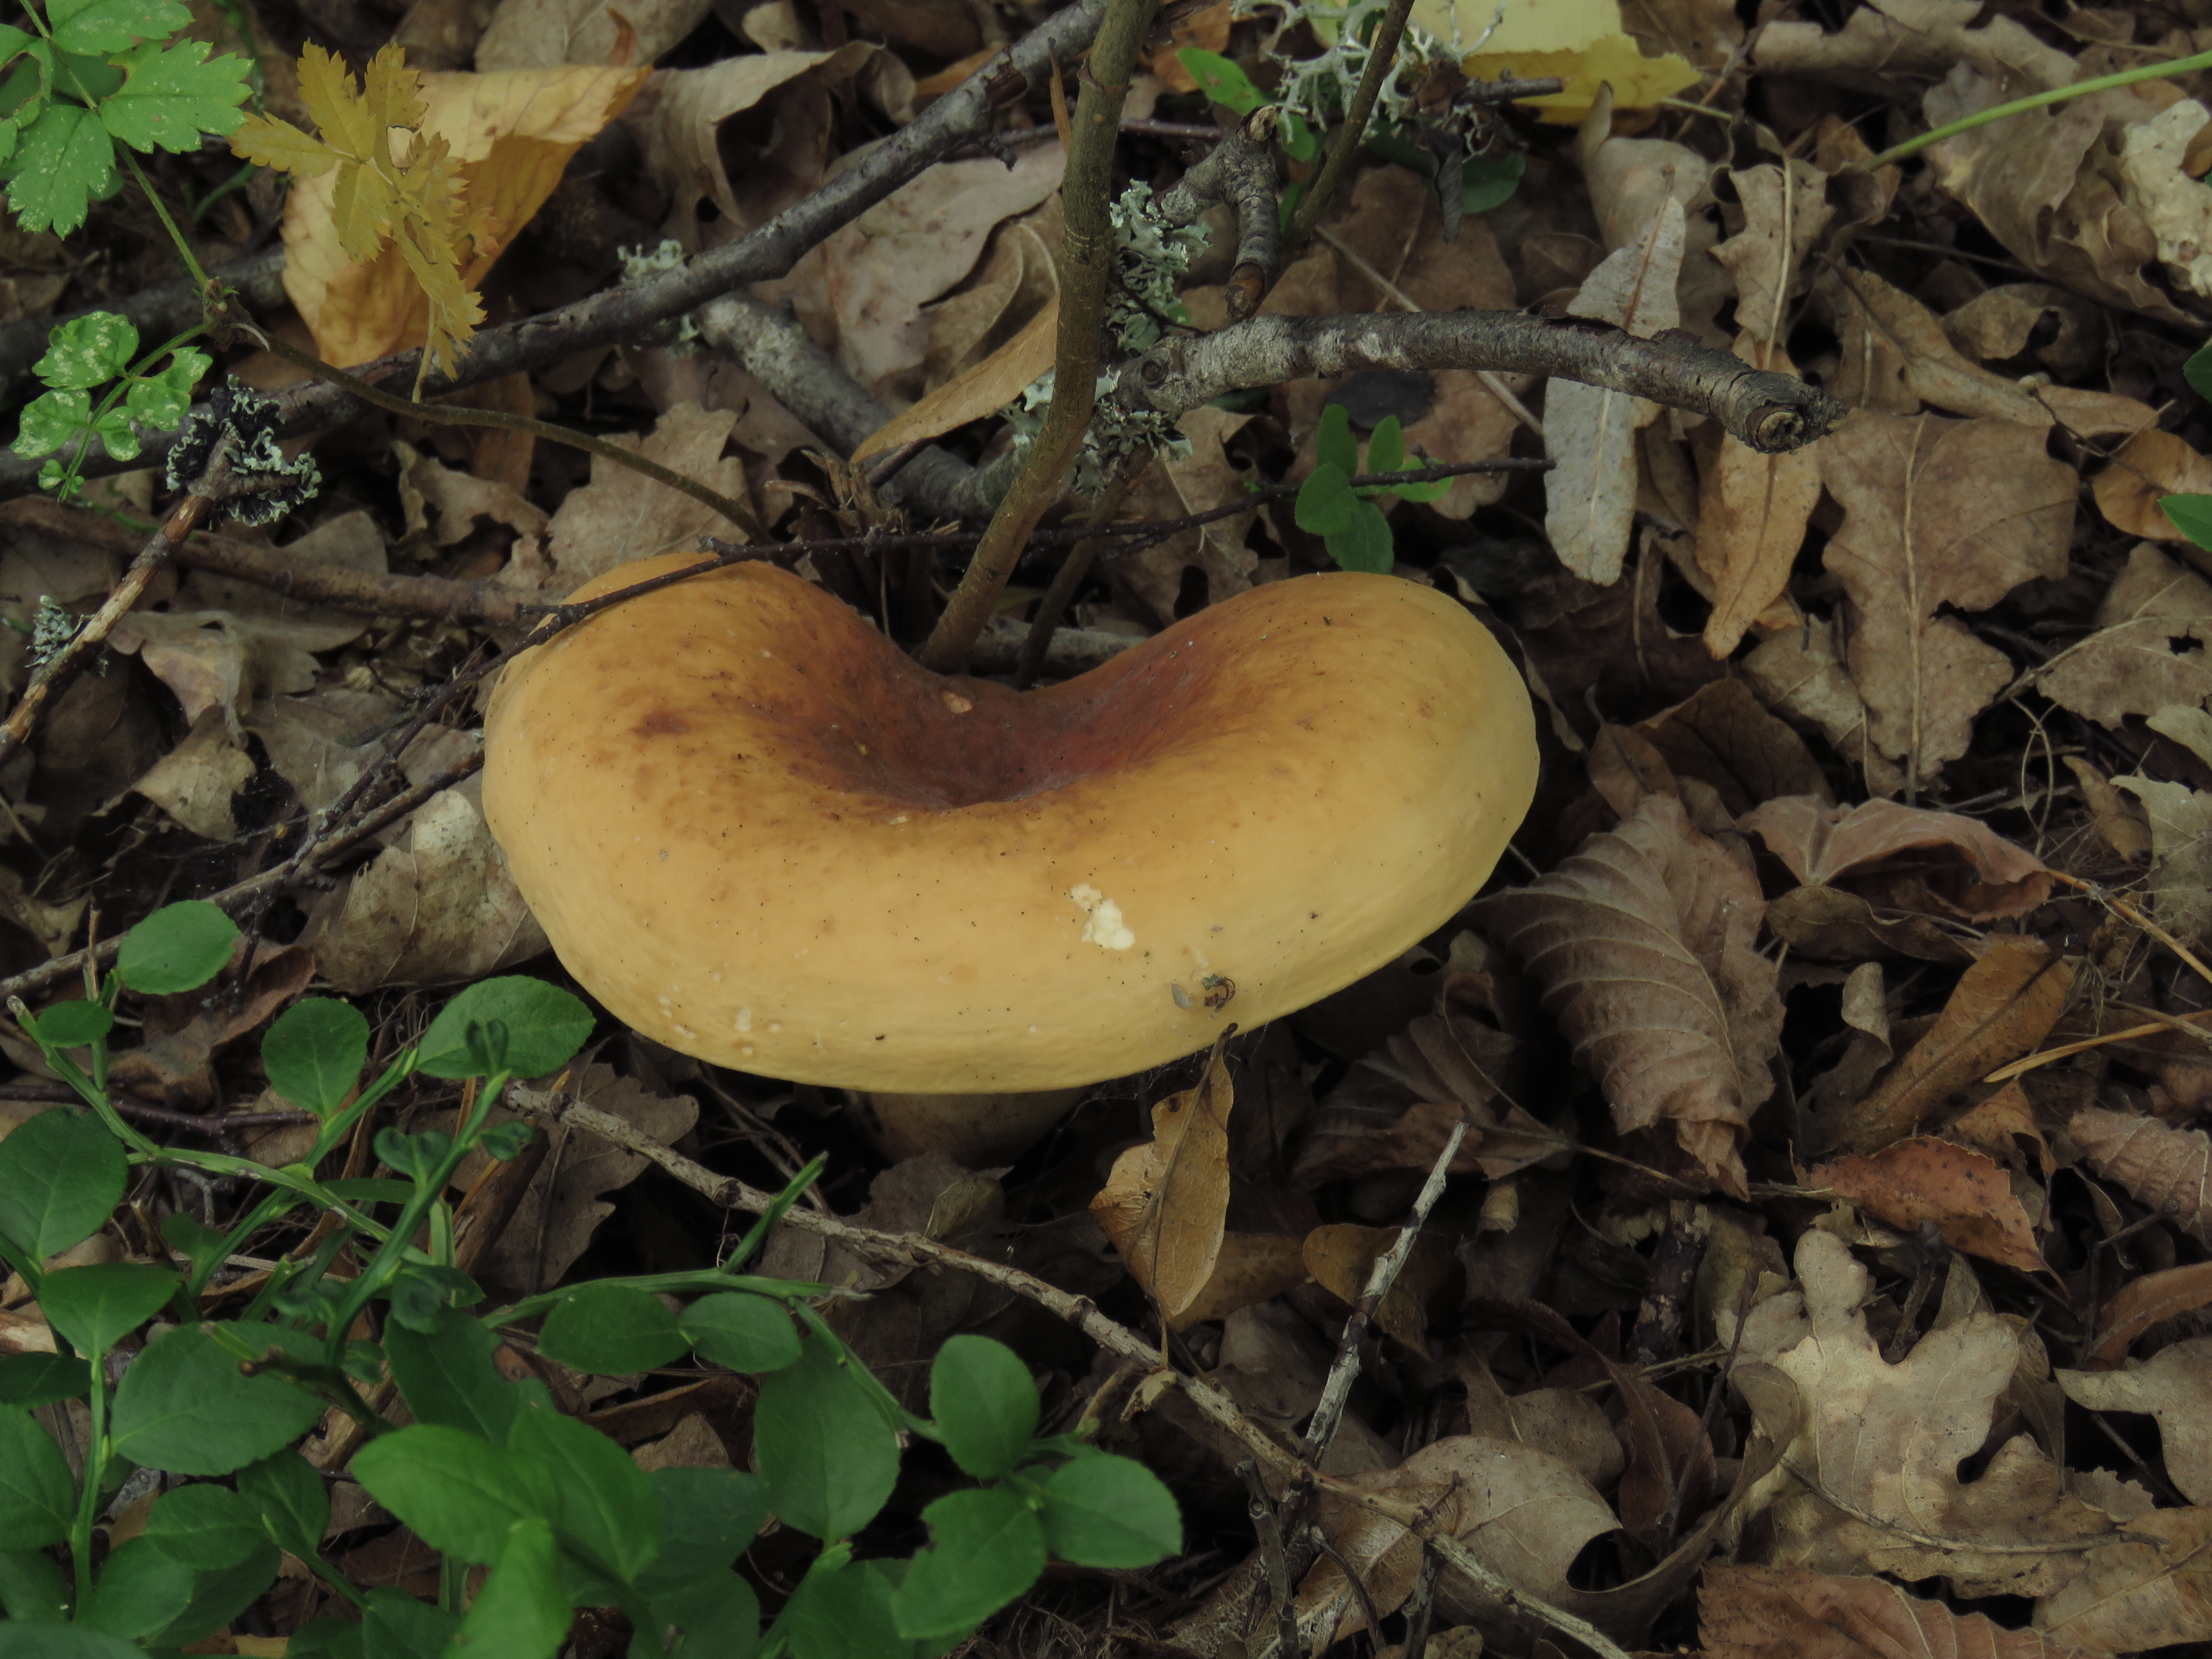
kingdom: Fungi
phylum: Basidiomycota
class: Agaricomycetes
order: Russulales
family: Russulaceae
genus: Lactifluus
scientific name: Lactifluus volemus
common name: Fishy milkcap
